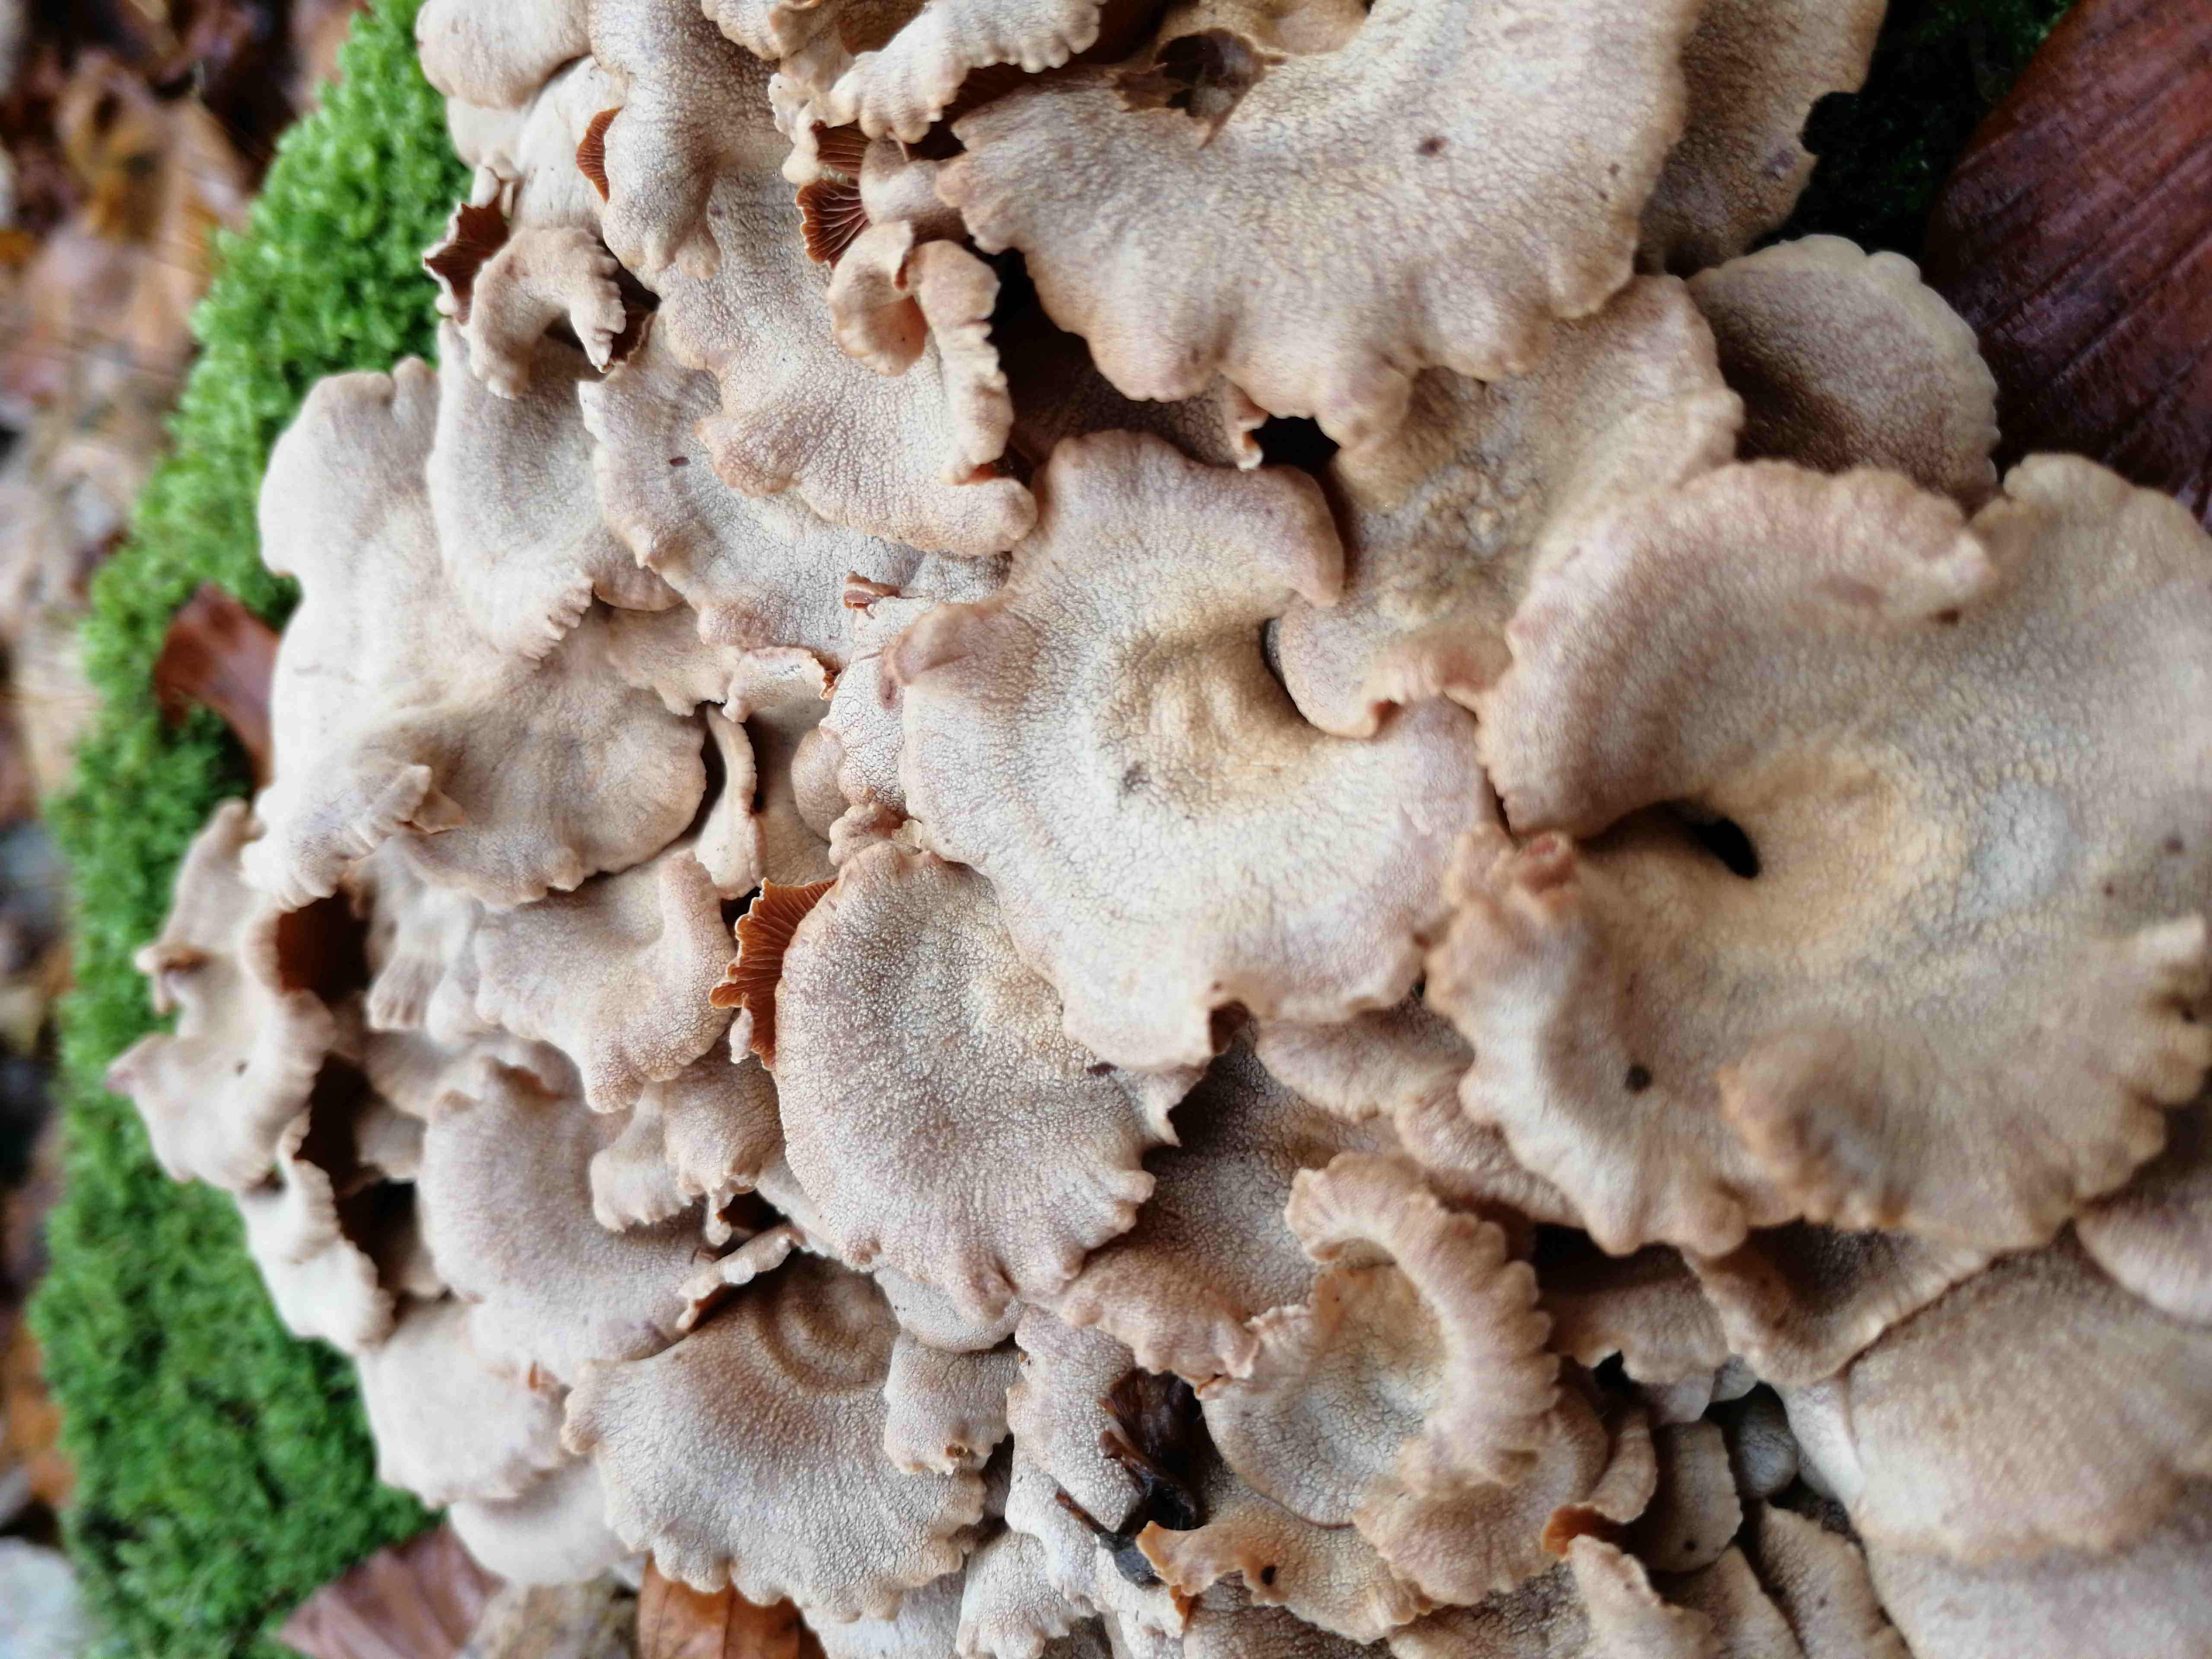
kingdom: Fungi
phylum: Basidiomycota
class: Agaricomycetes
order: Agaricales
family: Mycenaceae
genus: Panellus
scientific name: Panellus stipticus
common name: kliddet epaulethat
